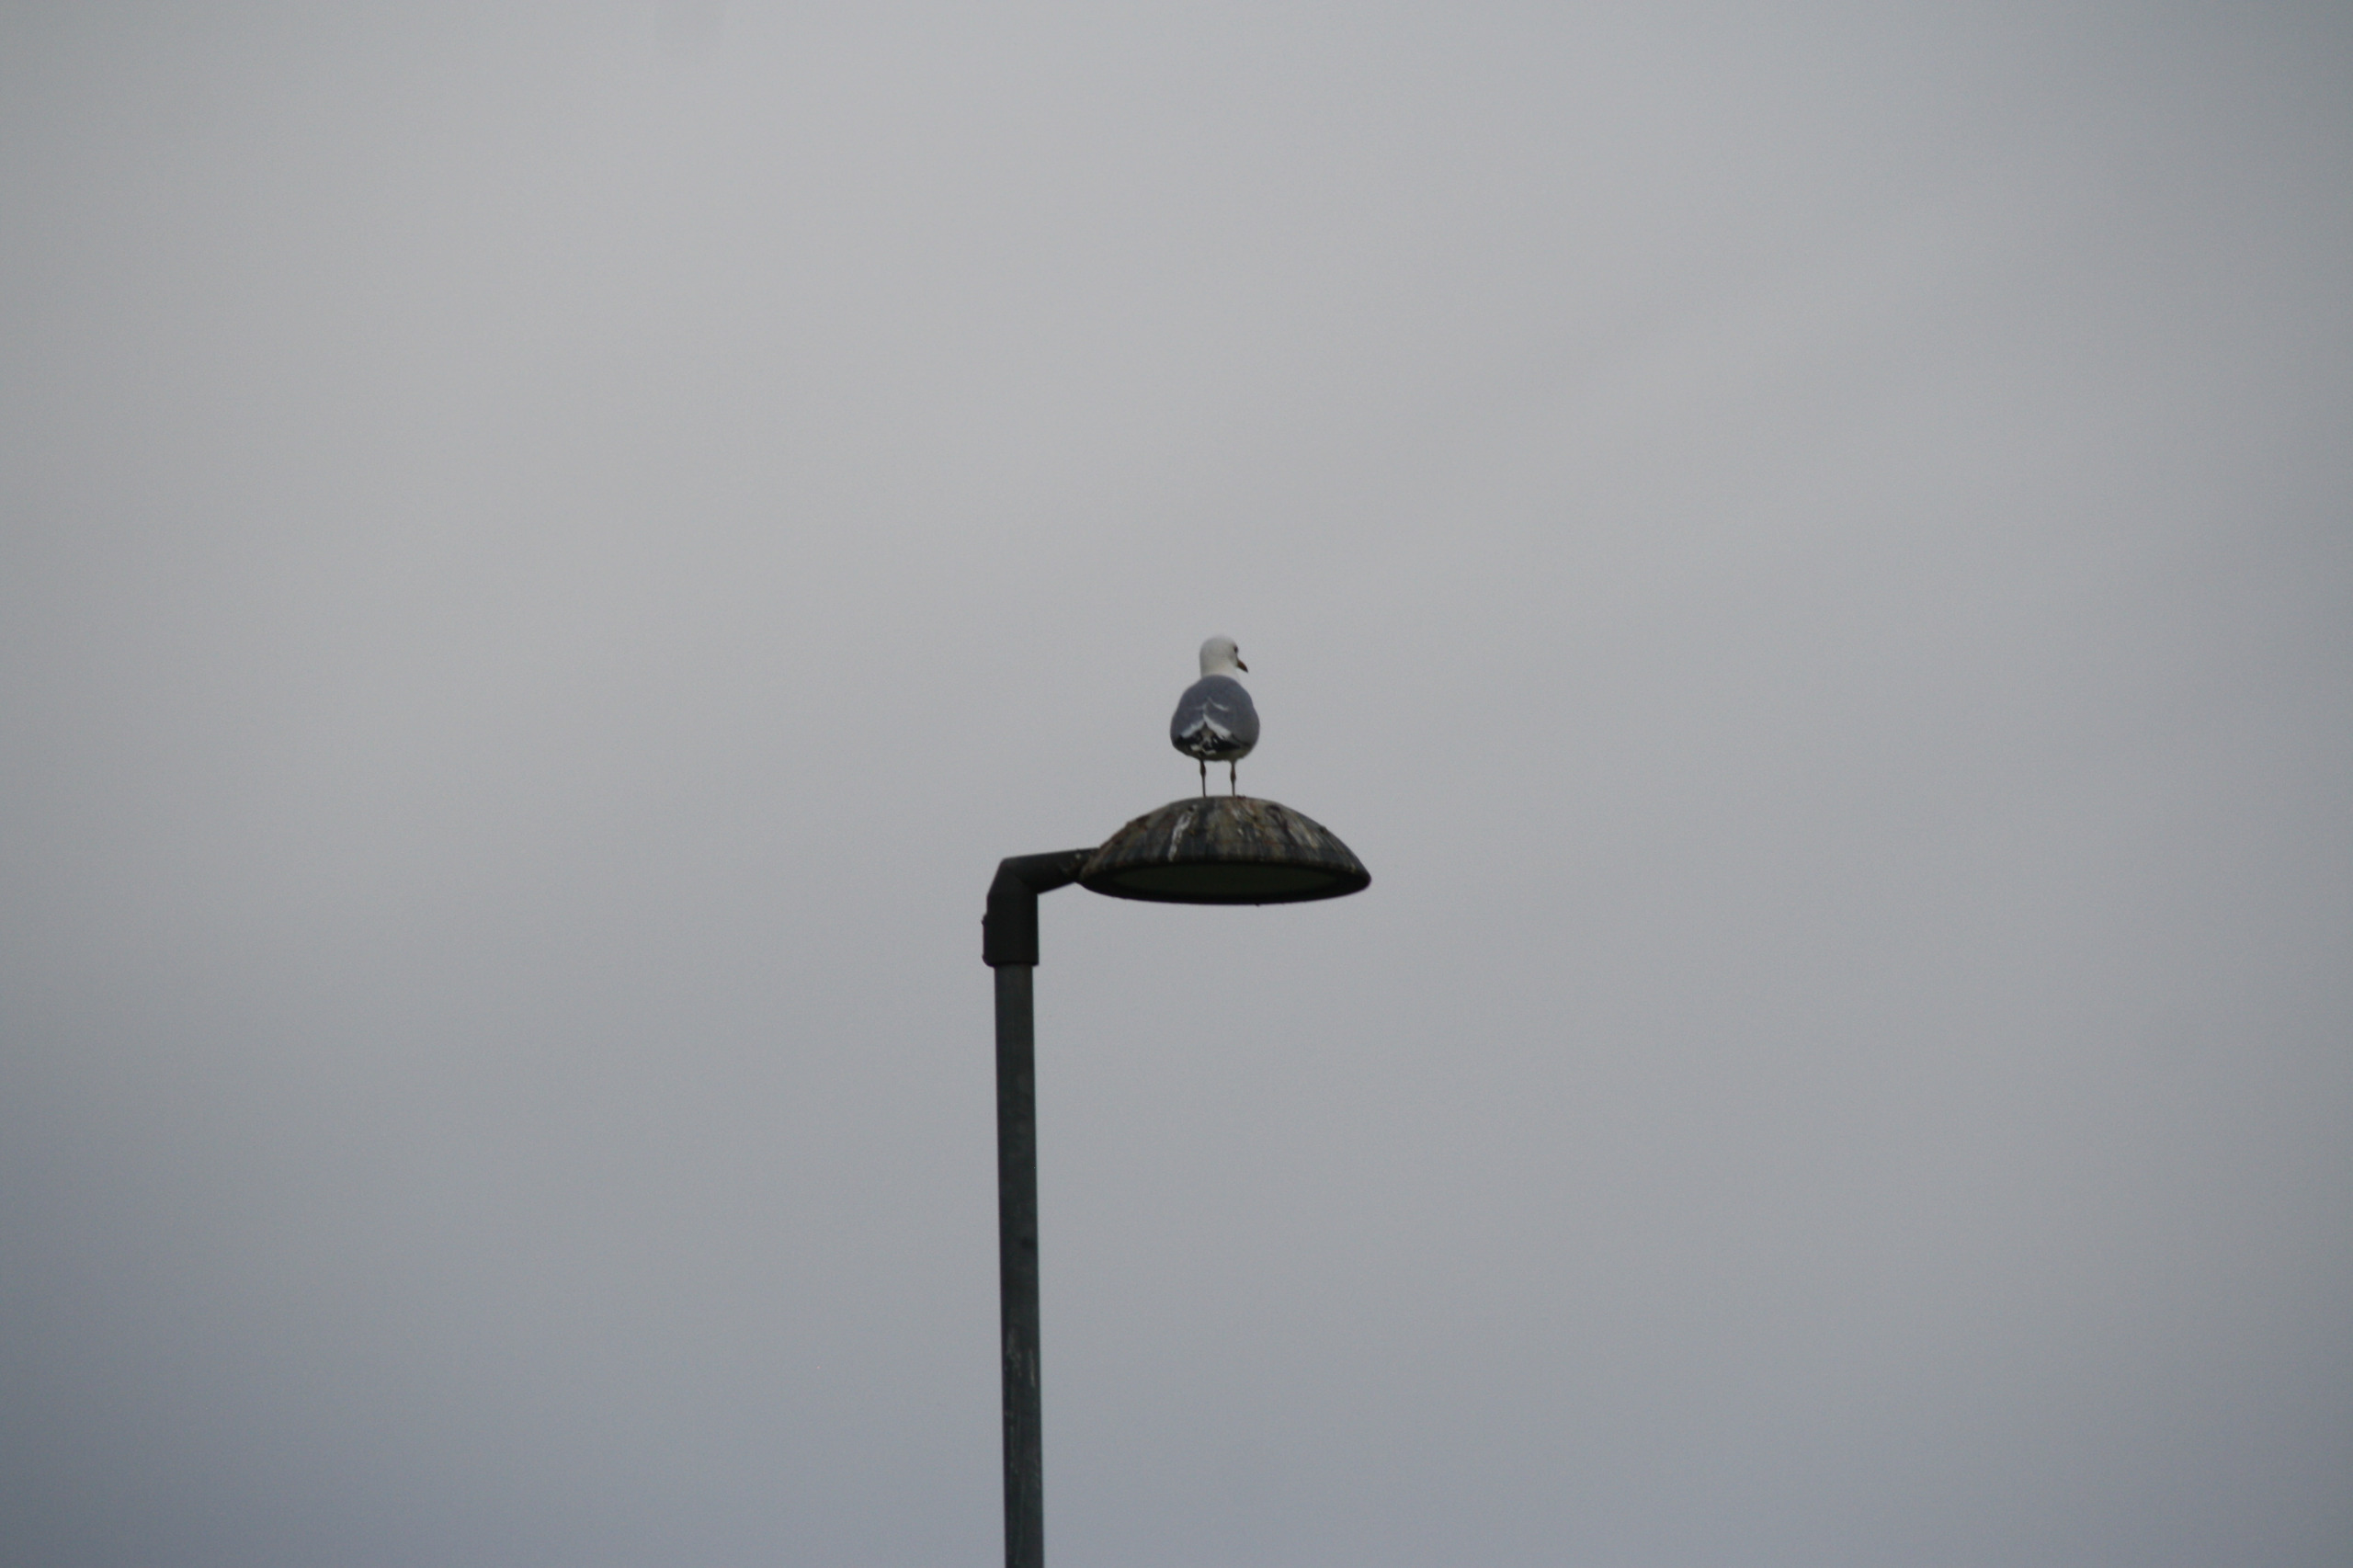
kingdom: Animalia
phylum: Chordata
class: Aves
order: Charadriiformes
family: Laridae
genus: Larus
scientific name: Larus canus
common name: Stormmåge
